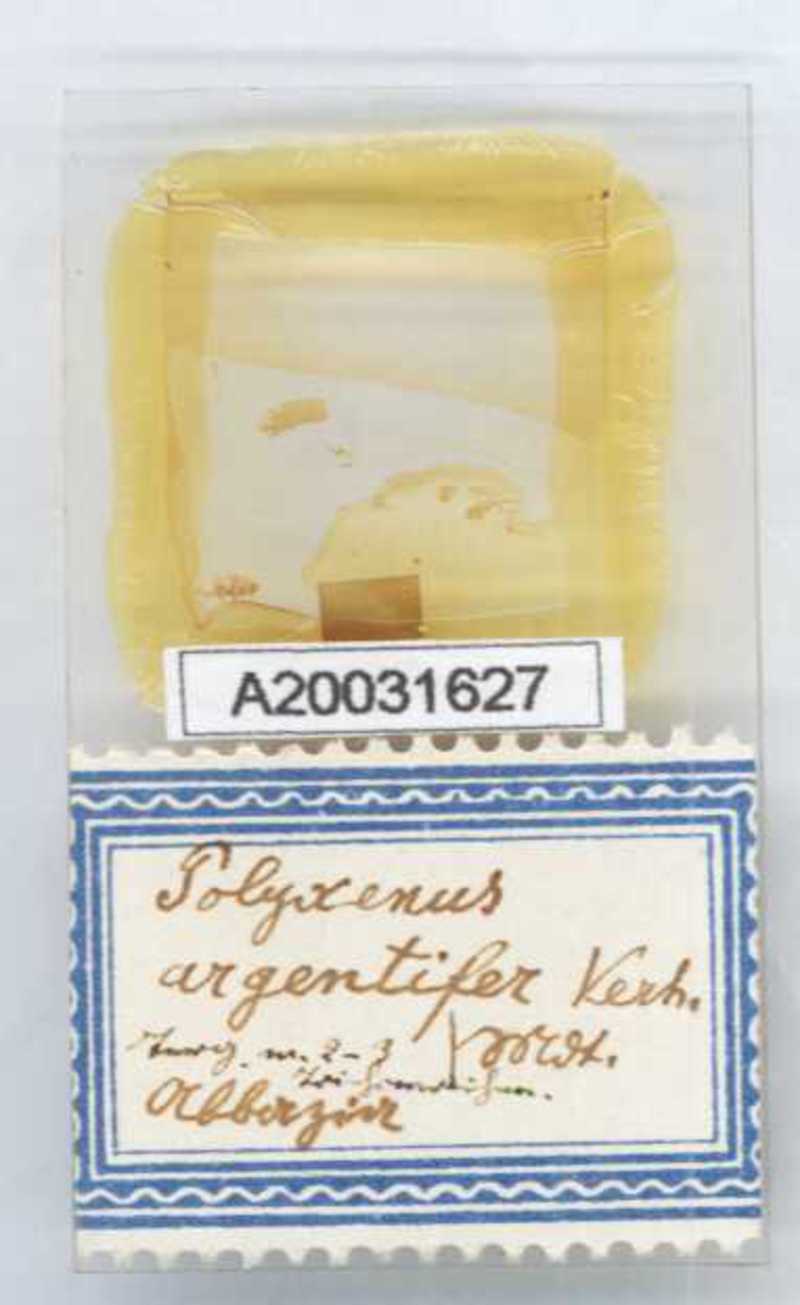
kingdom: Animalia
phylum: Arthropoda
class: Diplopoda
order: Polyxenida
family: Polyxenidae
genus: Propolyxenus
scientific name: Propolyxenus argentifer
